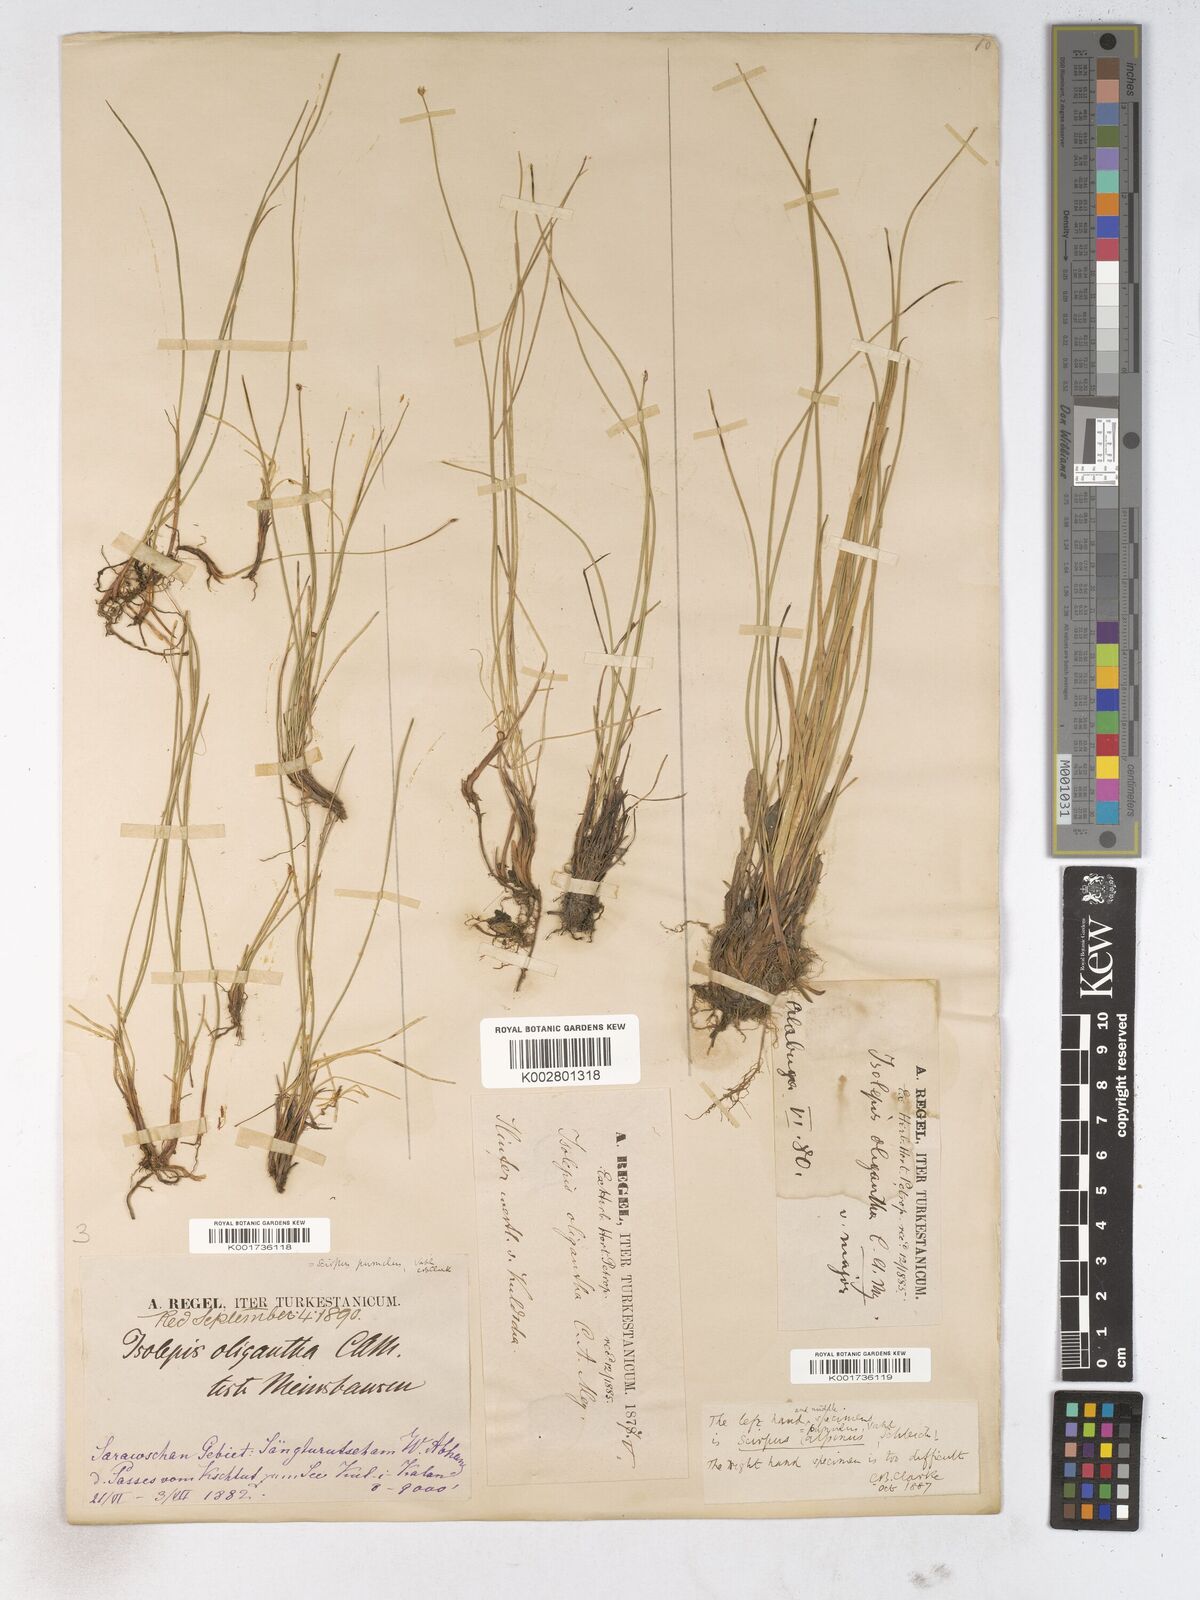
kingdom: Plantae
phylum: Tracheophyta
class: Liliopsida
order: Poales
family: Cyperaceae
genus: Trichophorum
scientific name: Trichophorum pumilum
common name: Rolland's bulrush
